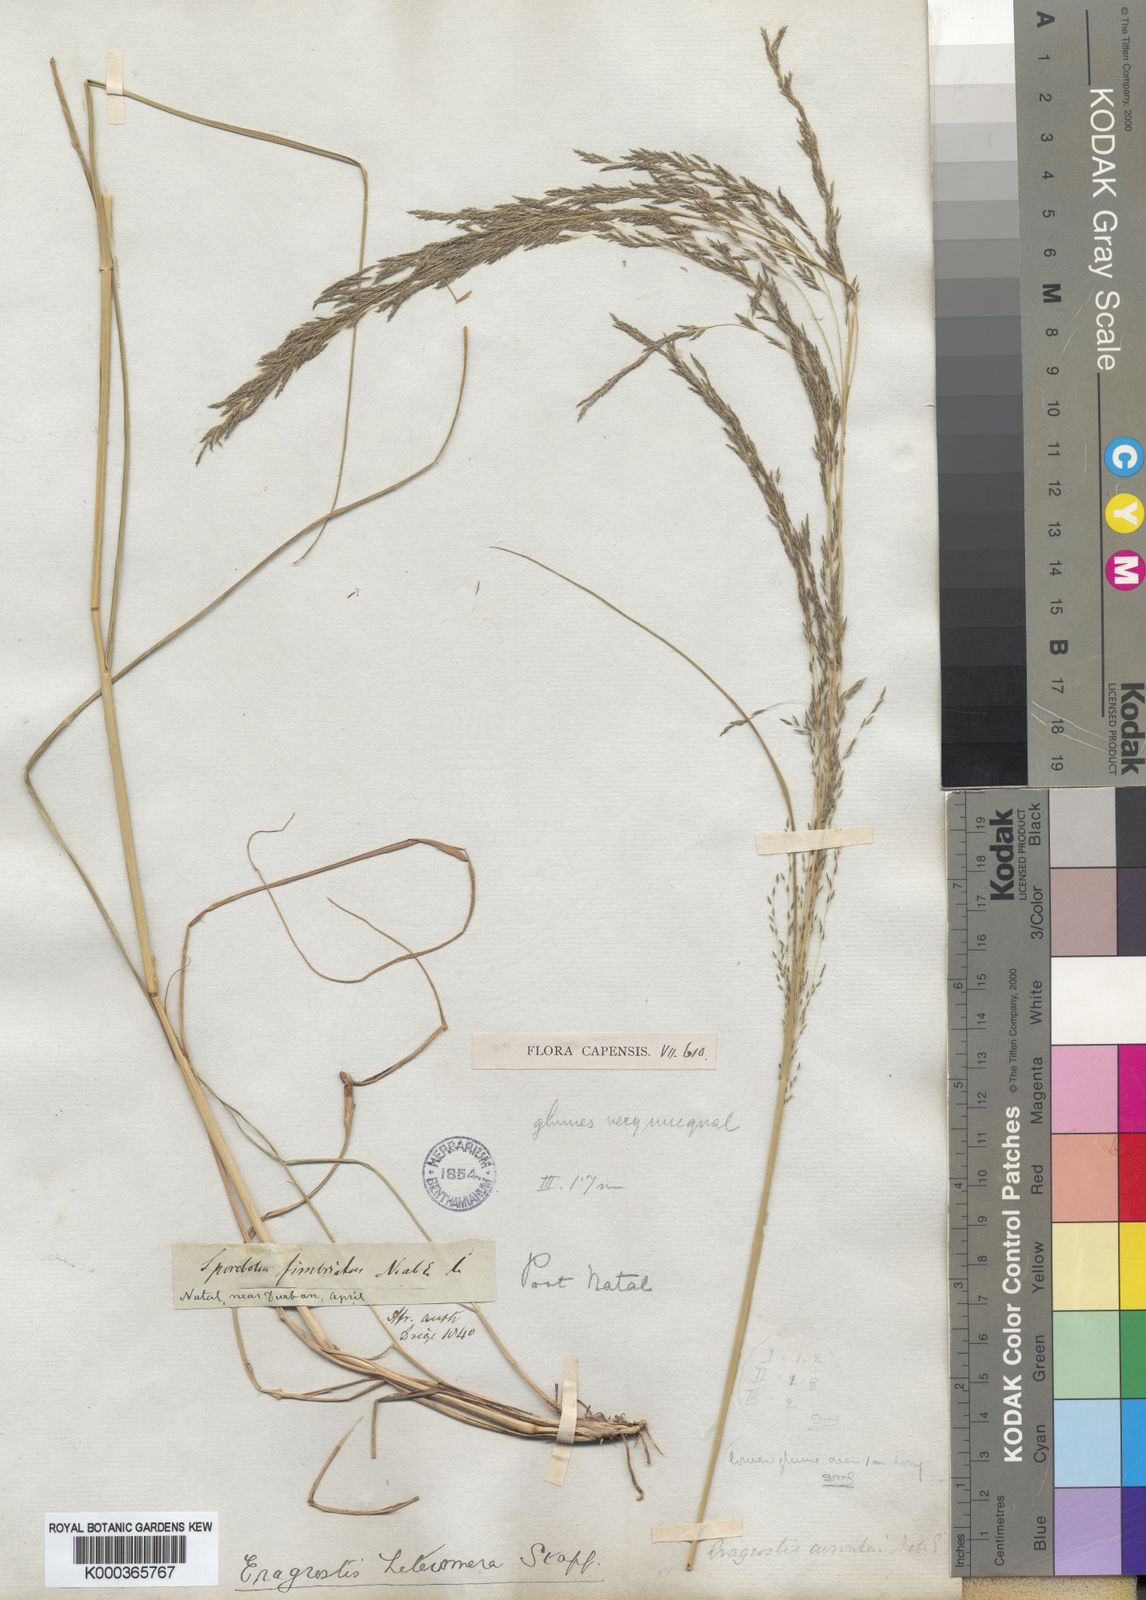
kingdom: Plantae
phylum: Tracheophyta
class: Liliopsida
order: Poales
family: Poaceae
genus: Eragrostis
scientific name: Eragrostis heteromera
